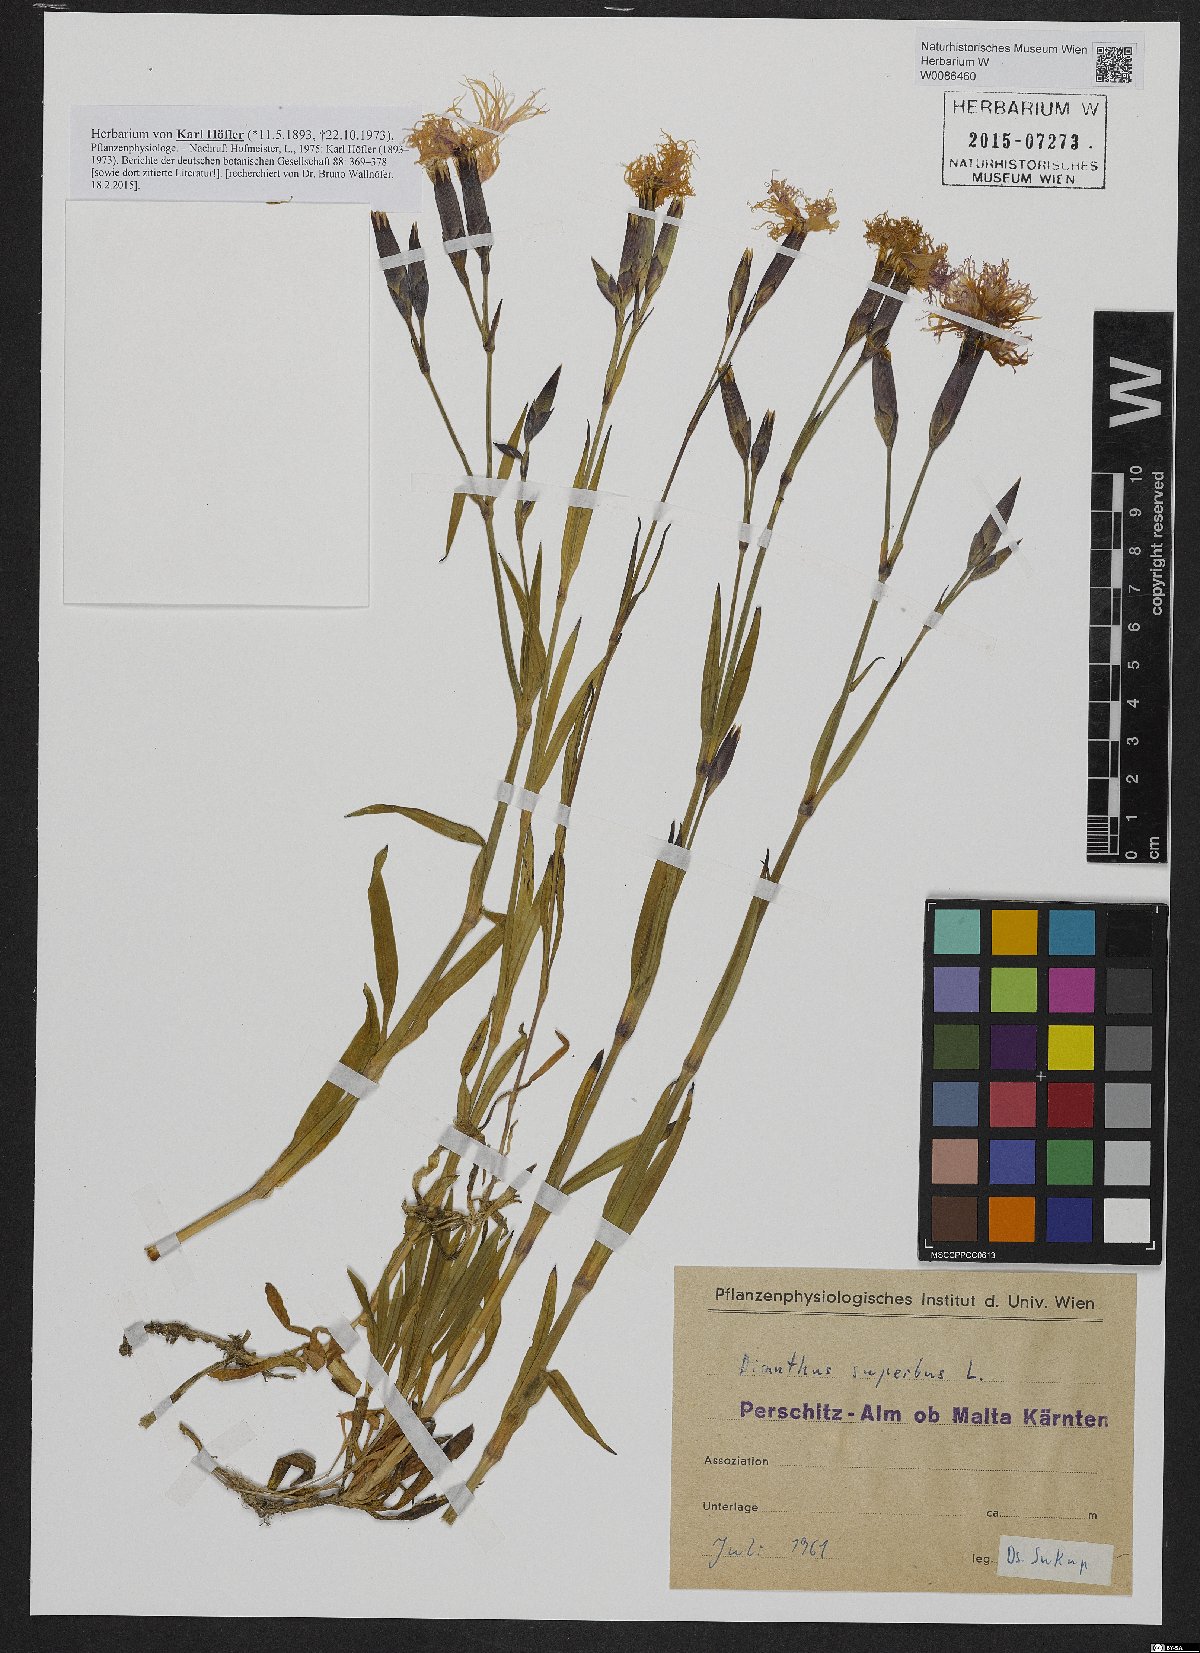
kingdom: Plantae
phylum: Tracheophyta
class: Magnoliopsida
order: Caryophyllales
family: Caryophyllaceae
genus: Dianthus
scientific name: Dianthus superbus
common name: Fringed pink
